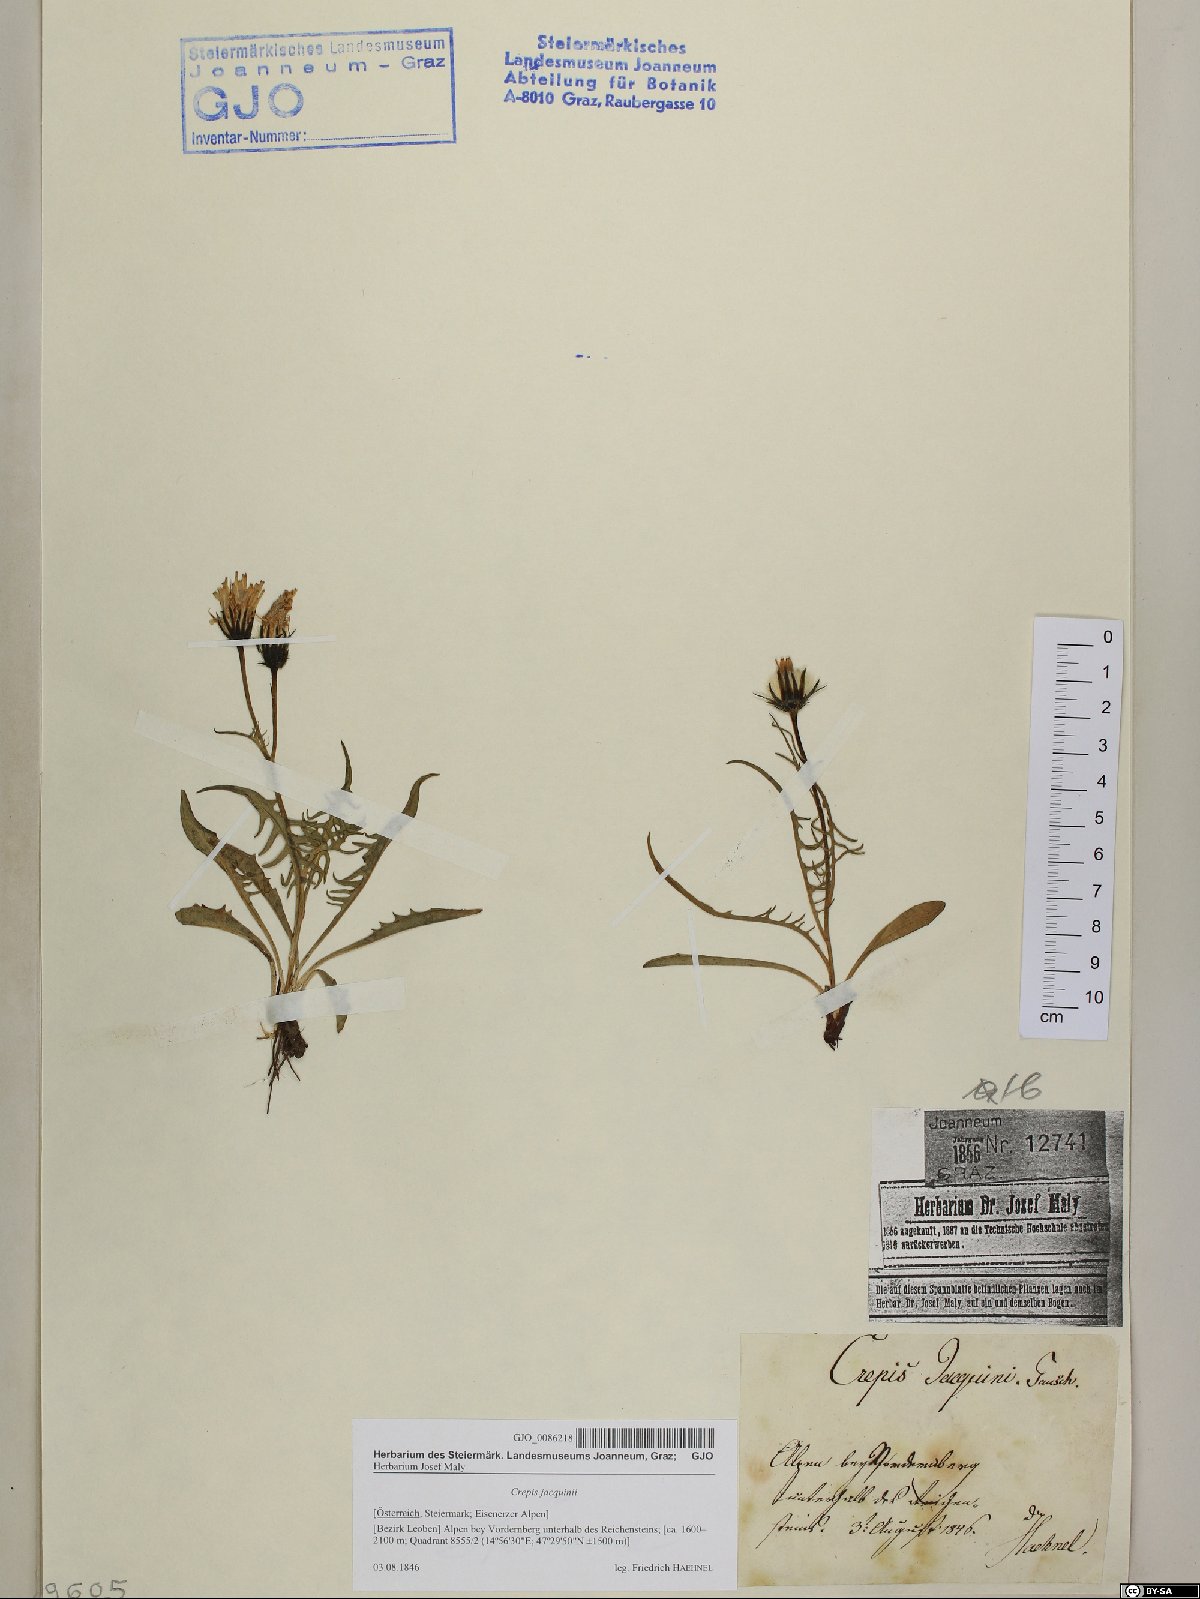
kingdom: Plantae
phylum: Tracheophyta
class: Magnoliopsida
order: Asterales
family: Asteraceae
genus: Crepis
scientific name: Crepis jacquinii
